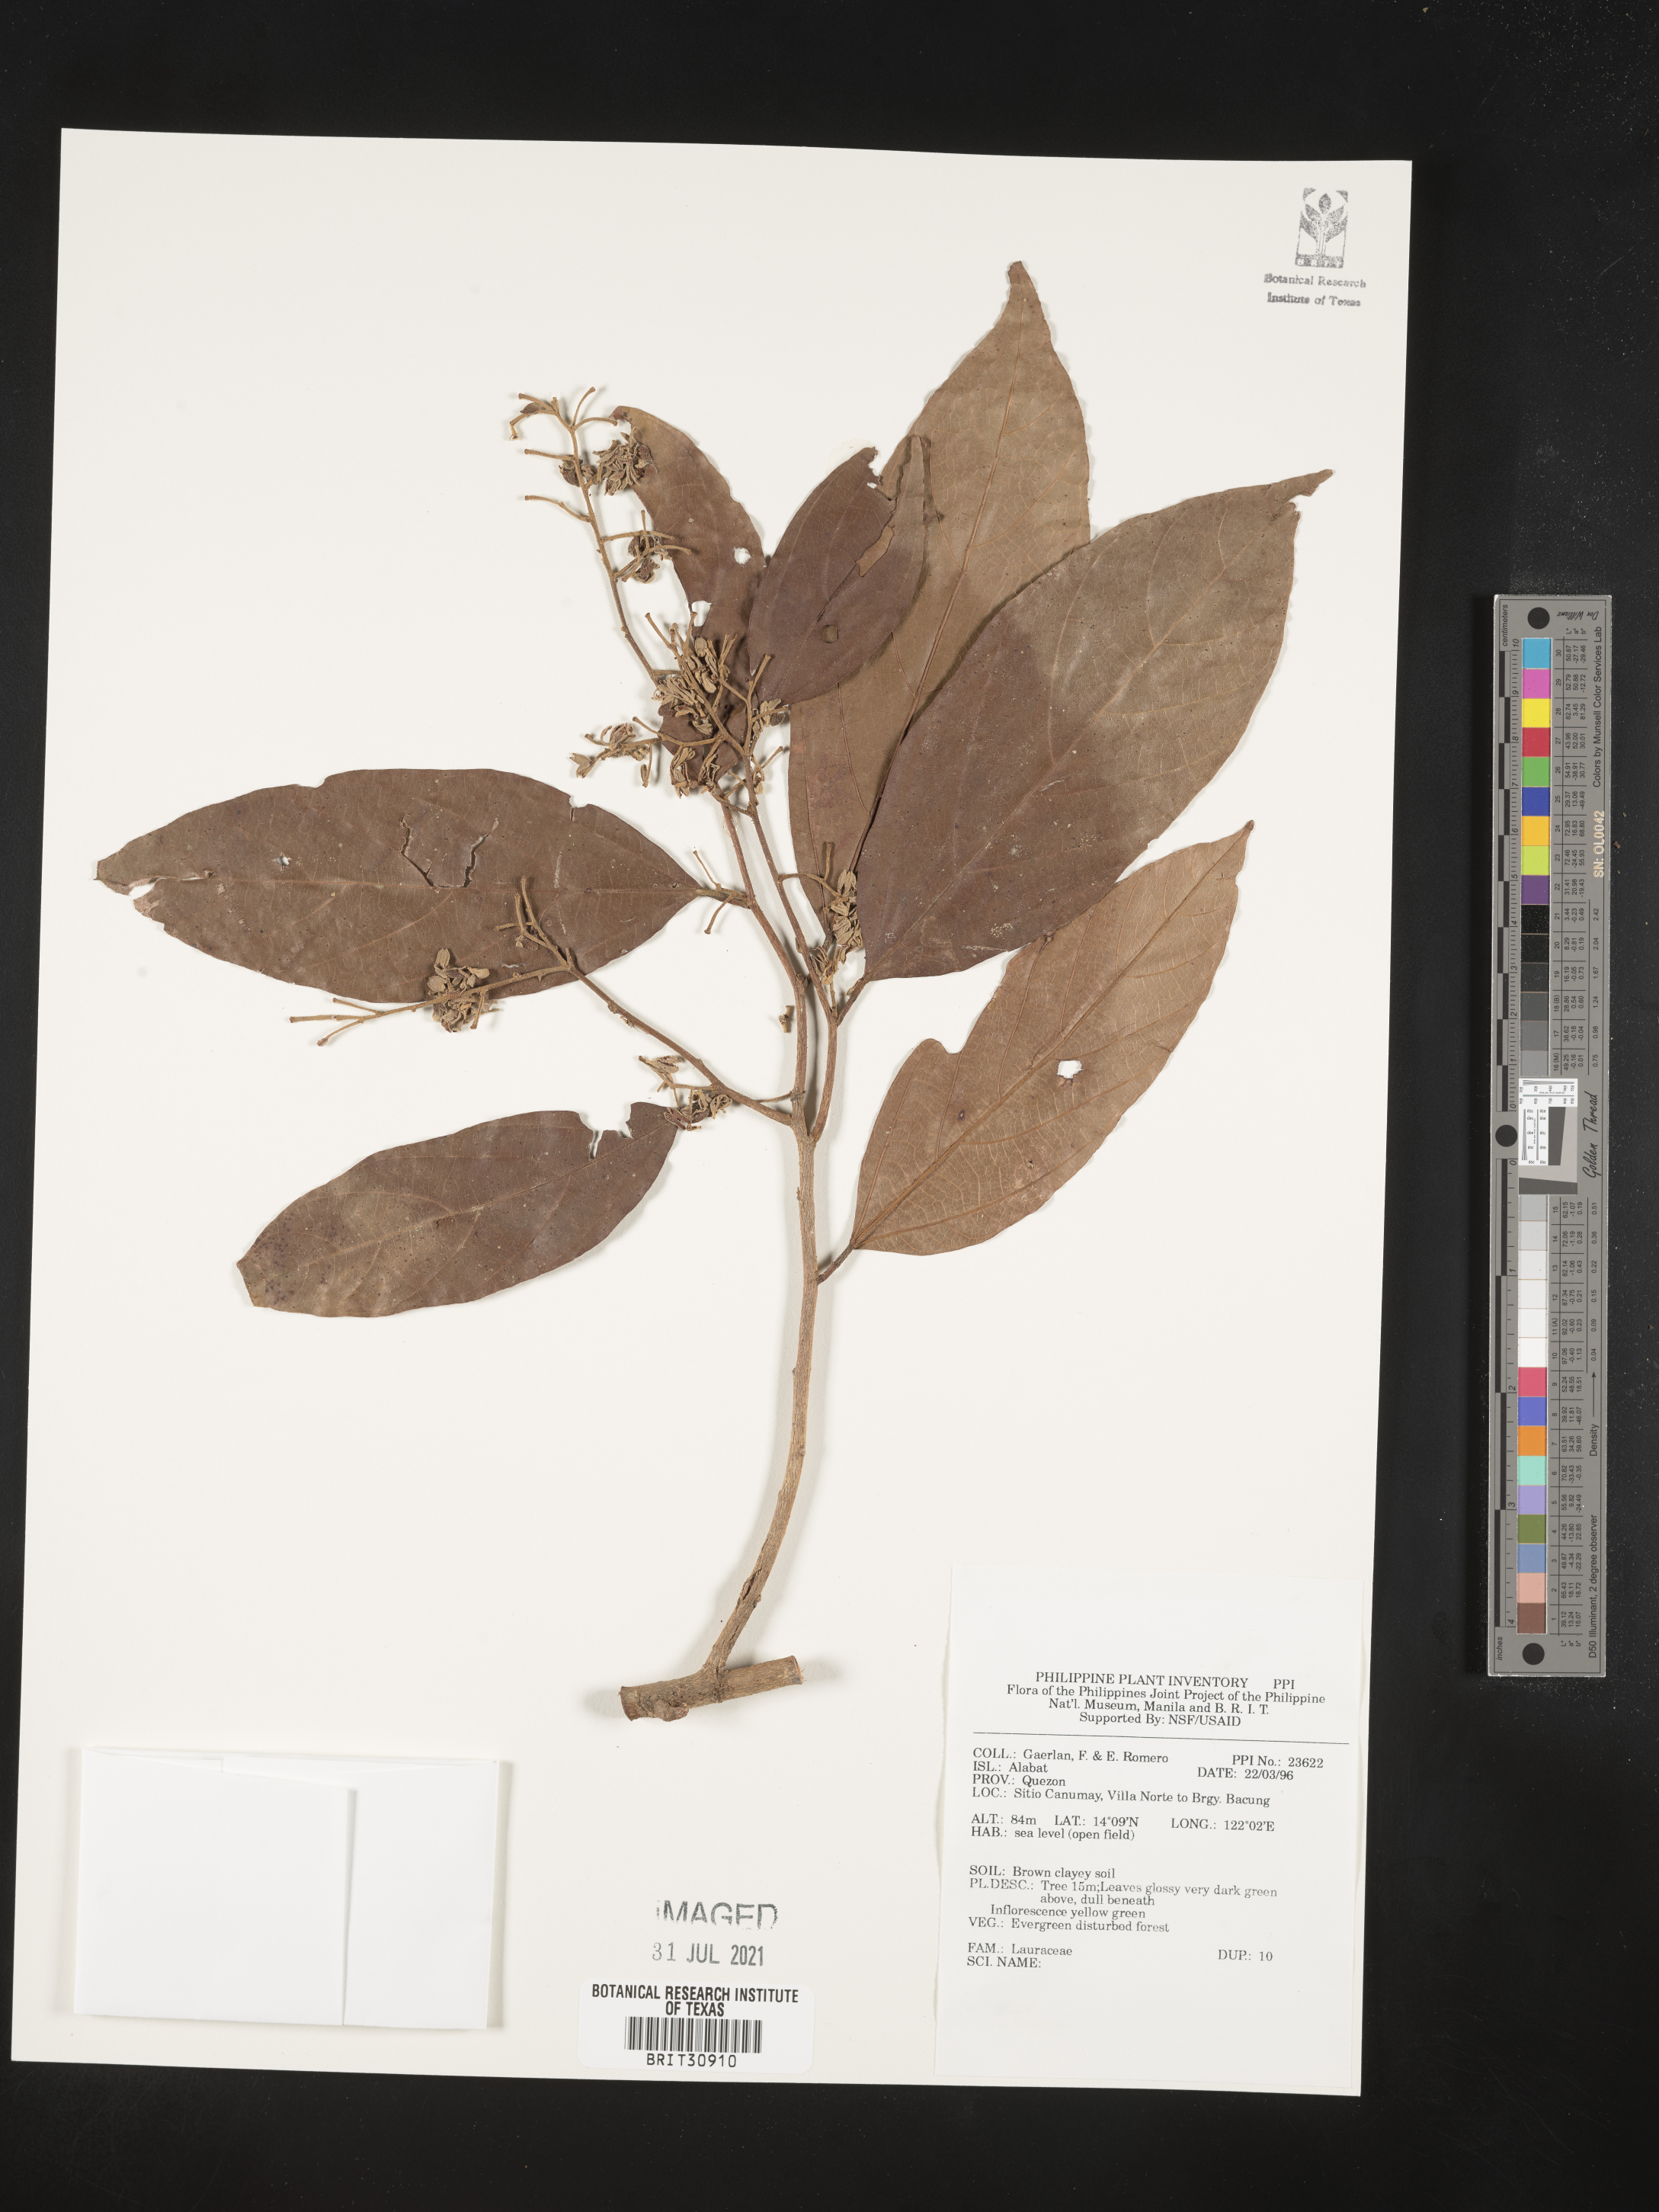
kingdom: Plantae
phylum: Tracheophyta
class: Magnoliopsida
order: Laurales
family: Lauraceae
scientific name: Lauraceae
